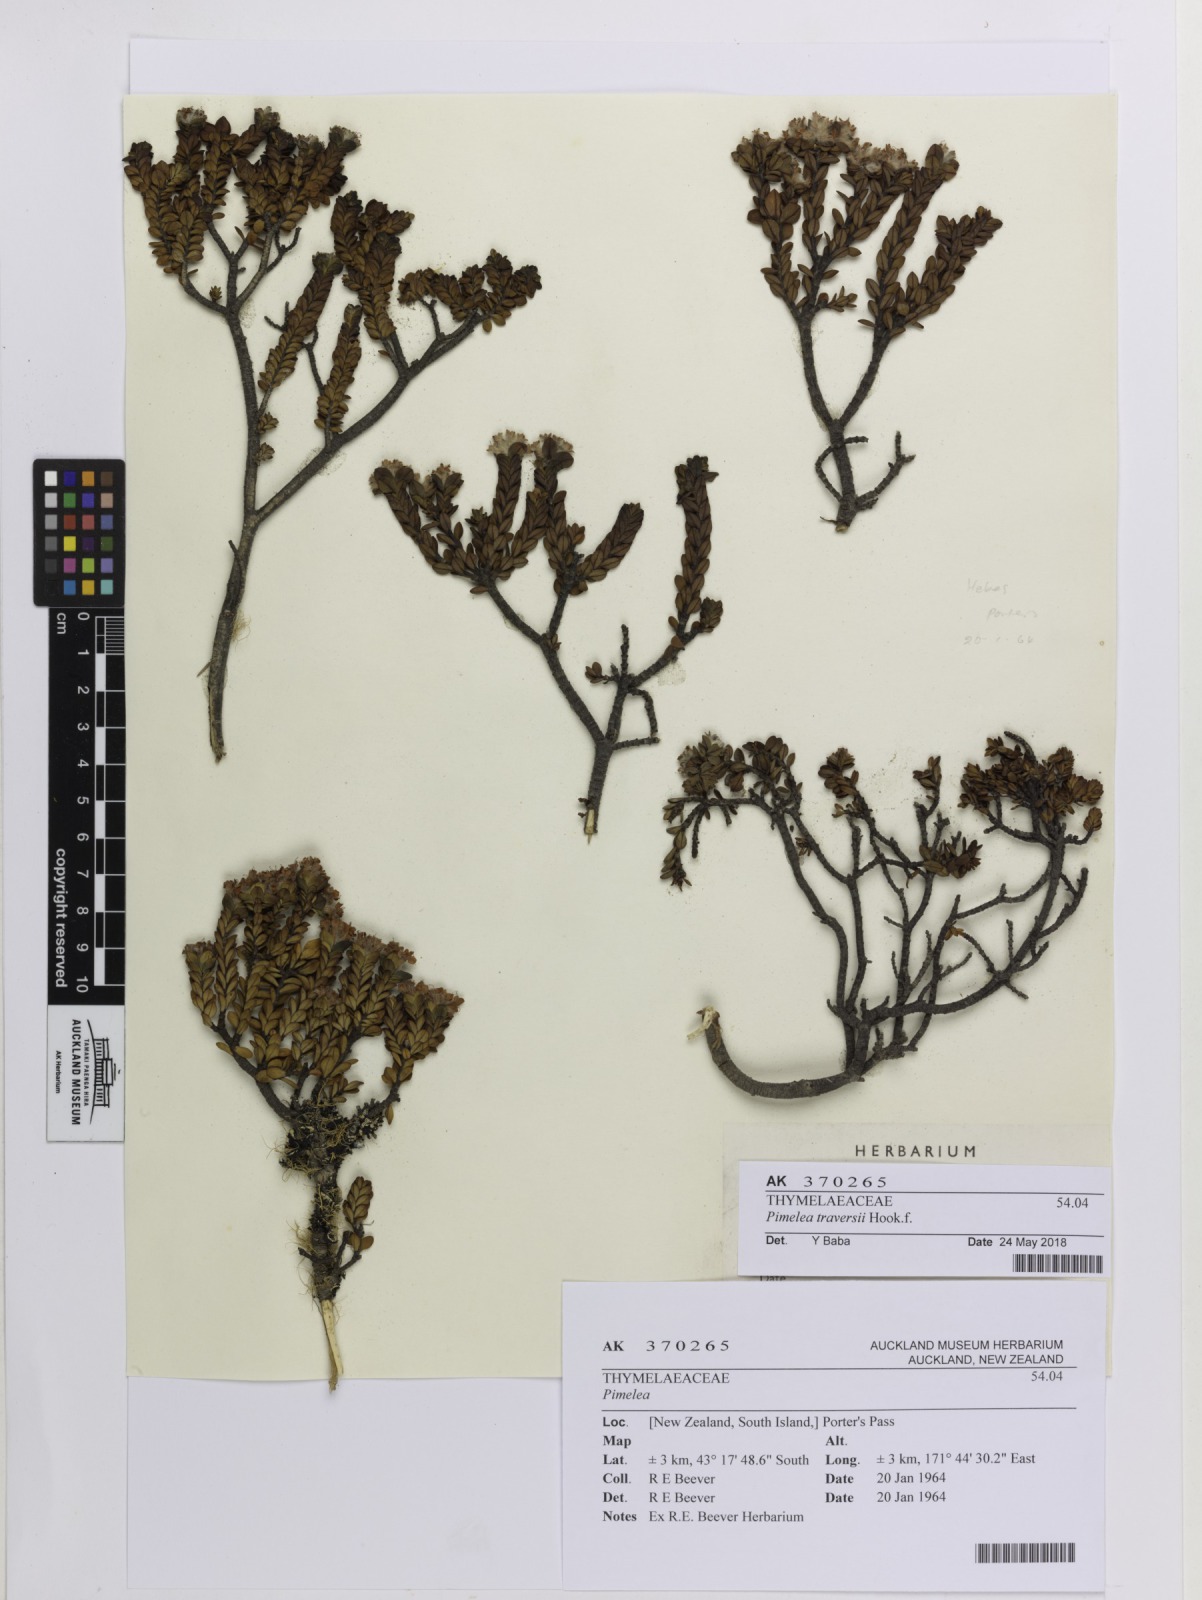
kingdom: Plantae
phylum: Tracheophyta
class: Magnoliopsida
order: Malvales
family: Thymelaeaceae
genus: Pimelea
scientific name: Pimelea traversii
